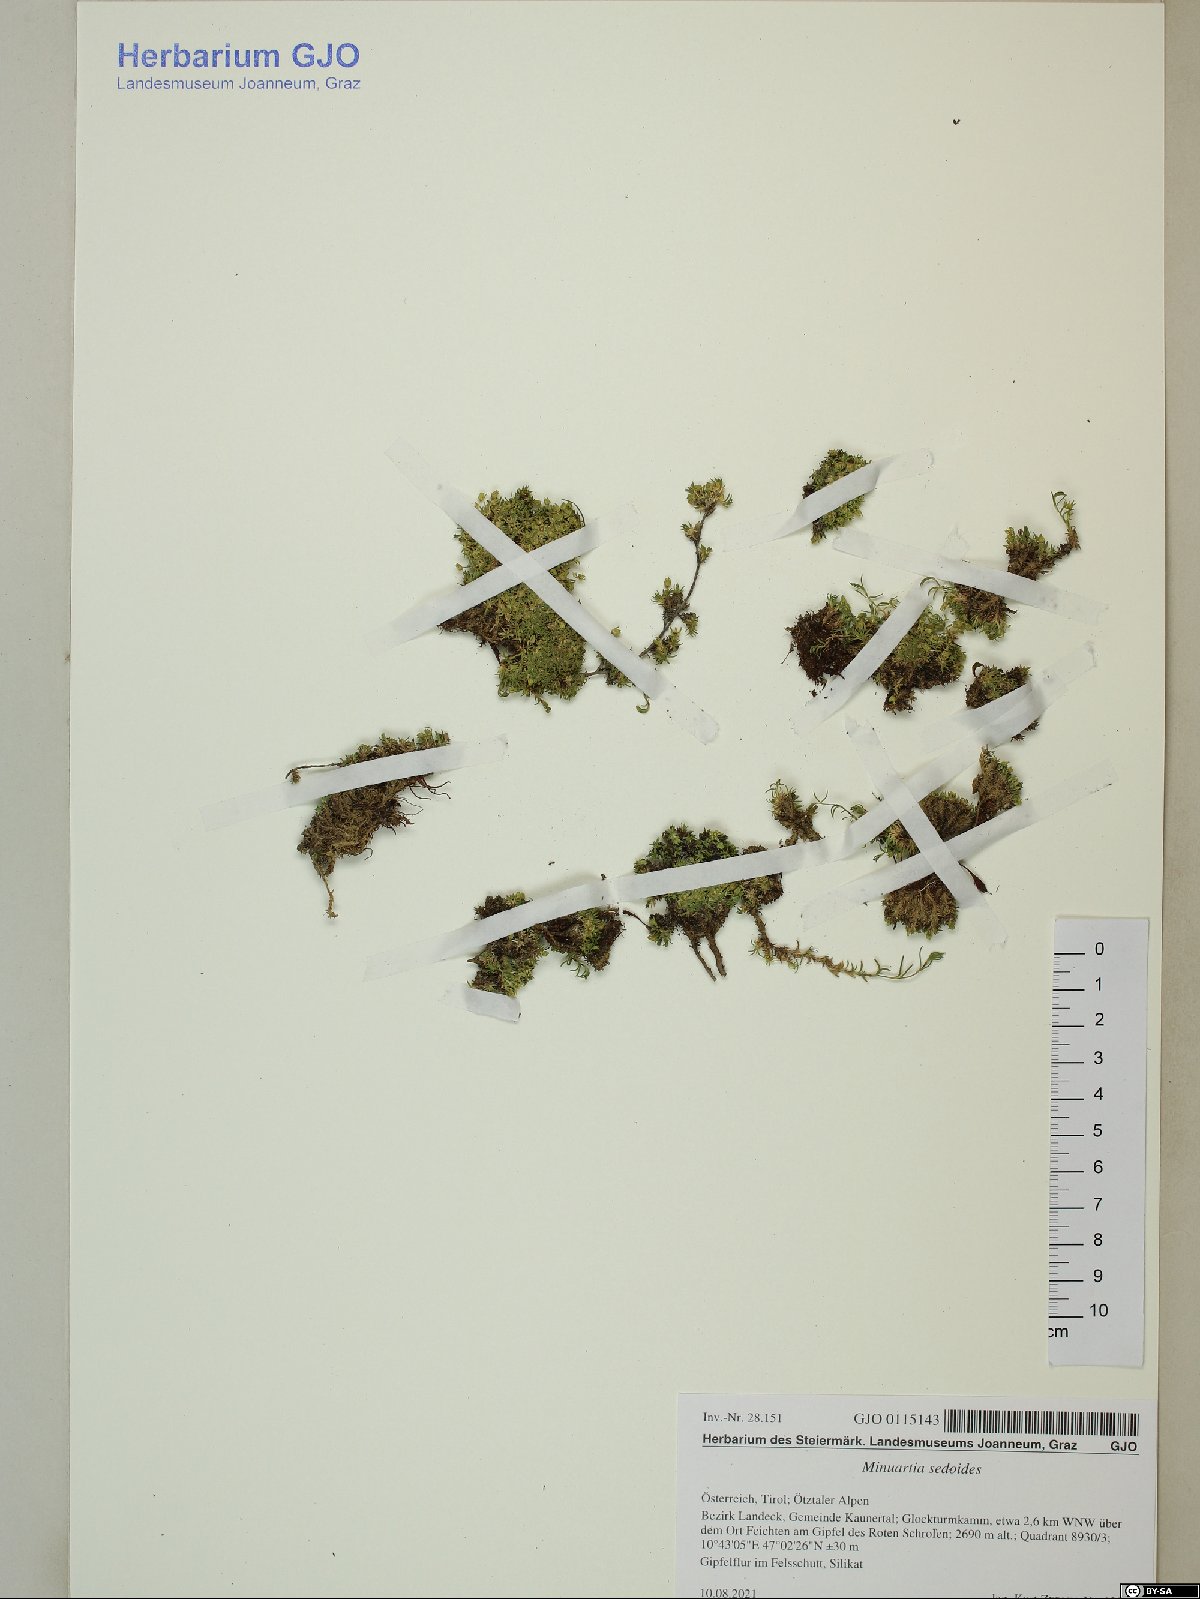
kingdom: Plantae
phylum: Tracheophyta
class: Magnoliopsida
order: Caryophyllales
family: Caryophyllaceae
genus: Cherleria
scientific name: Cherleria sedoides
